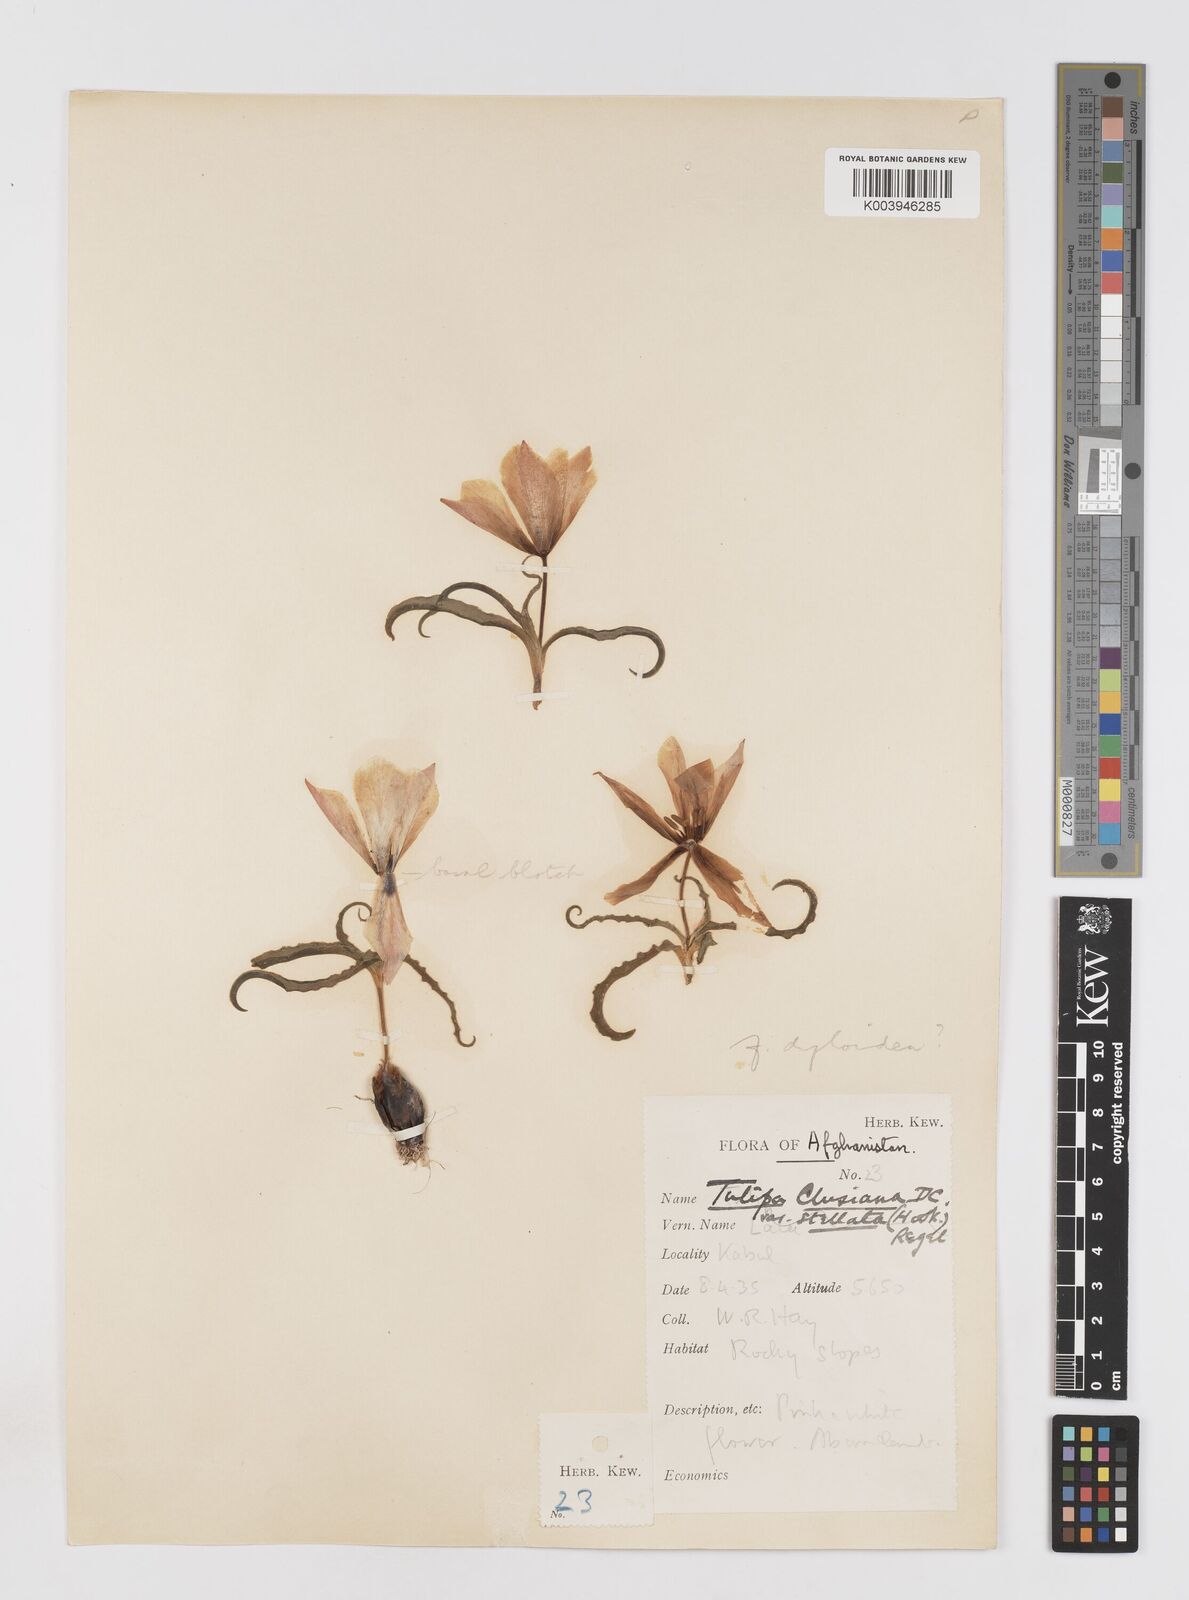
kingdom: Plantae
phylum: Tracheophyta
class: Liliopsida
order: Liliales
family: Liliaceae
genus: Tulipa
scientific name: Tulipa clusiana
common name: Lady tulip
